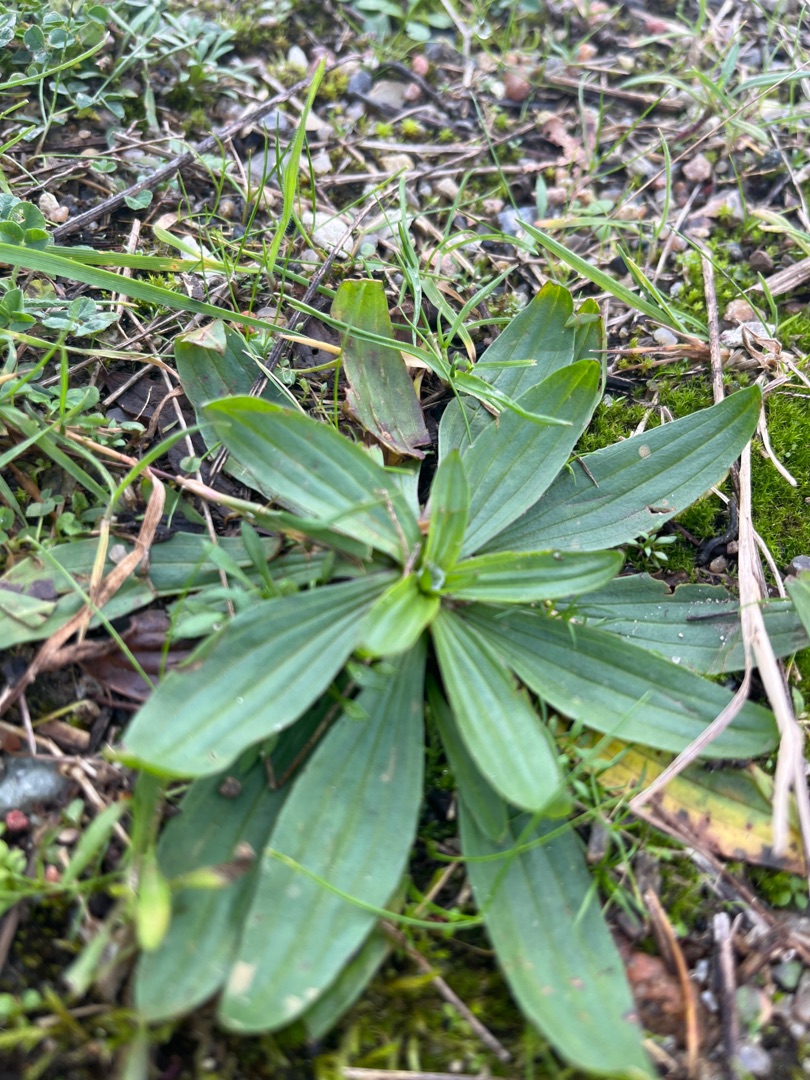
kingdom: Plantae
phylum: Tracheophyta
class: Magnoliopsida
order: Lamiales
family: Plantaginaceae
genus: Plantago
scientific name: Plantago lanceolata
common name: Lancet-vejbred
